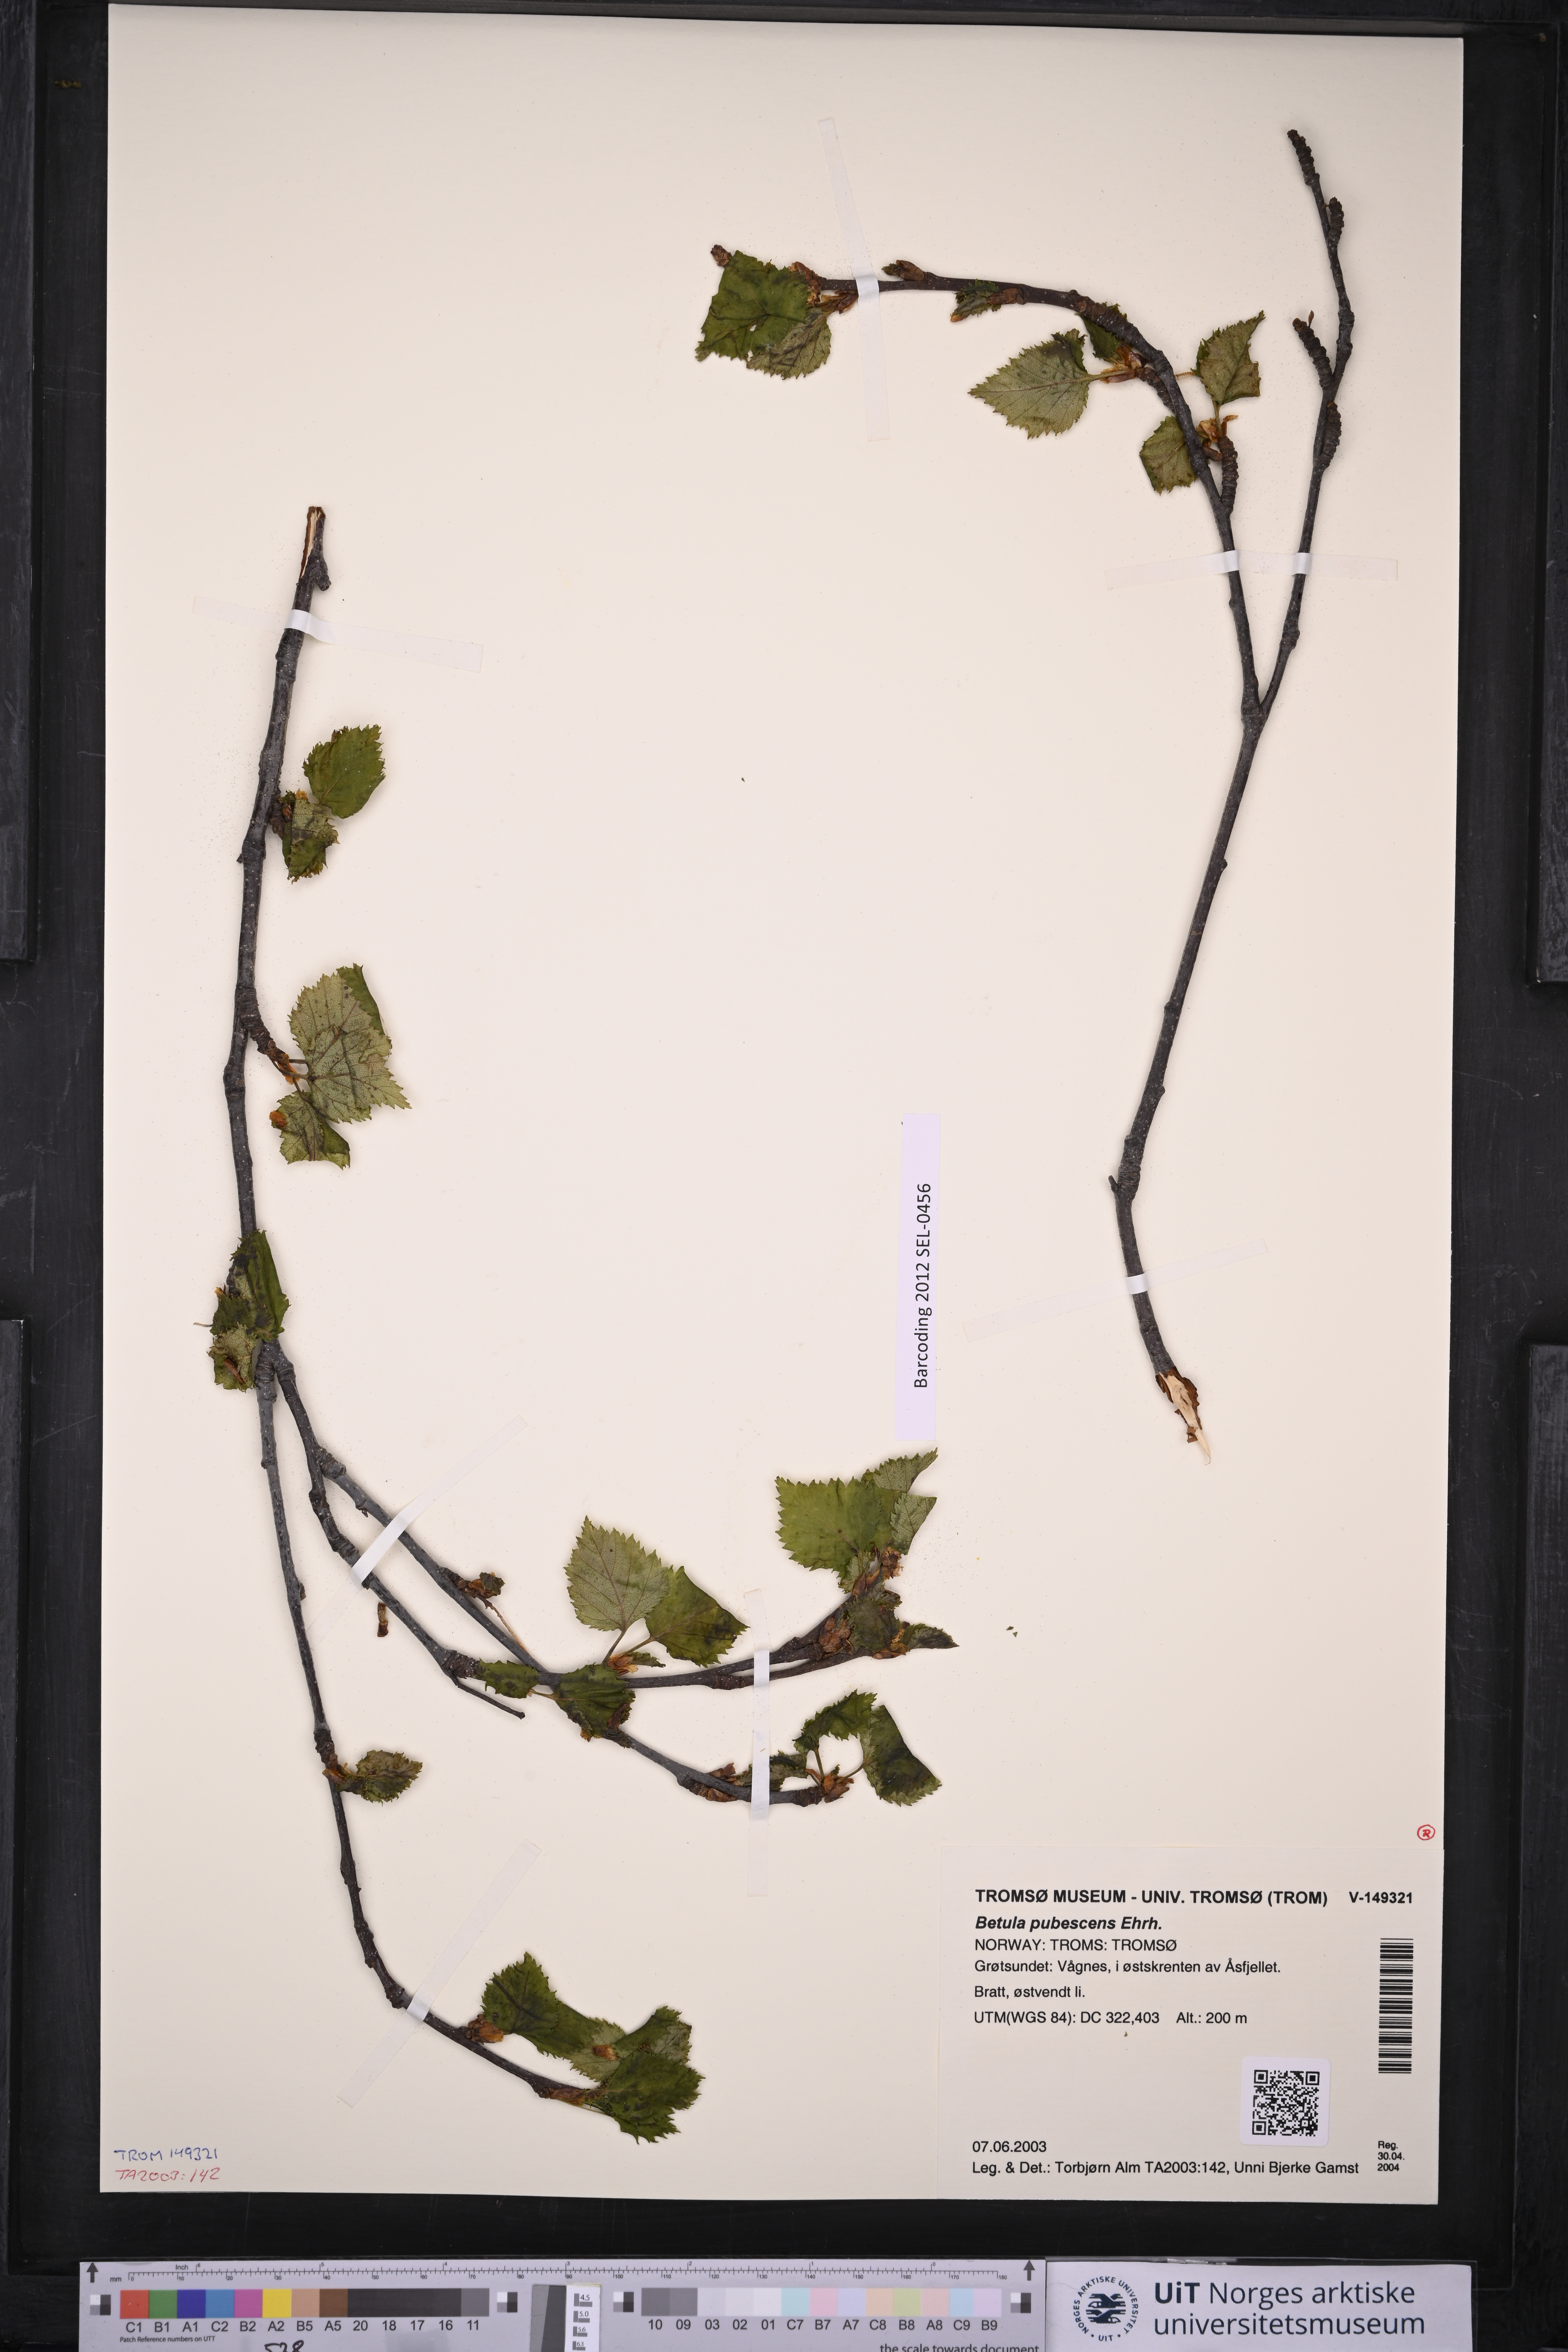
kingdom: Plantae
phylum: Tracheophyta
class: Magnoliopsida
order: Fagales
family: Betulaceae
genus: Betula
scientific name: Betula pubescens
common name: Downy birch
